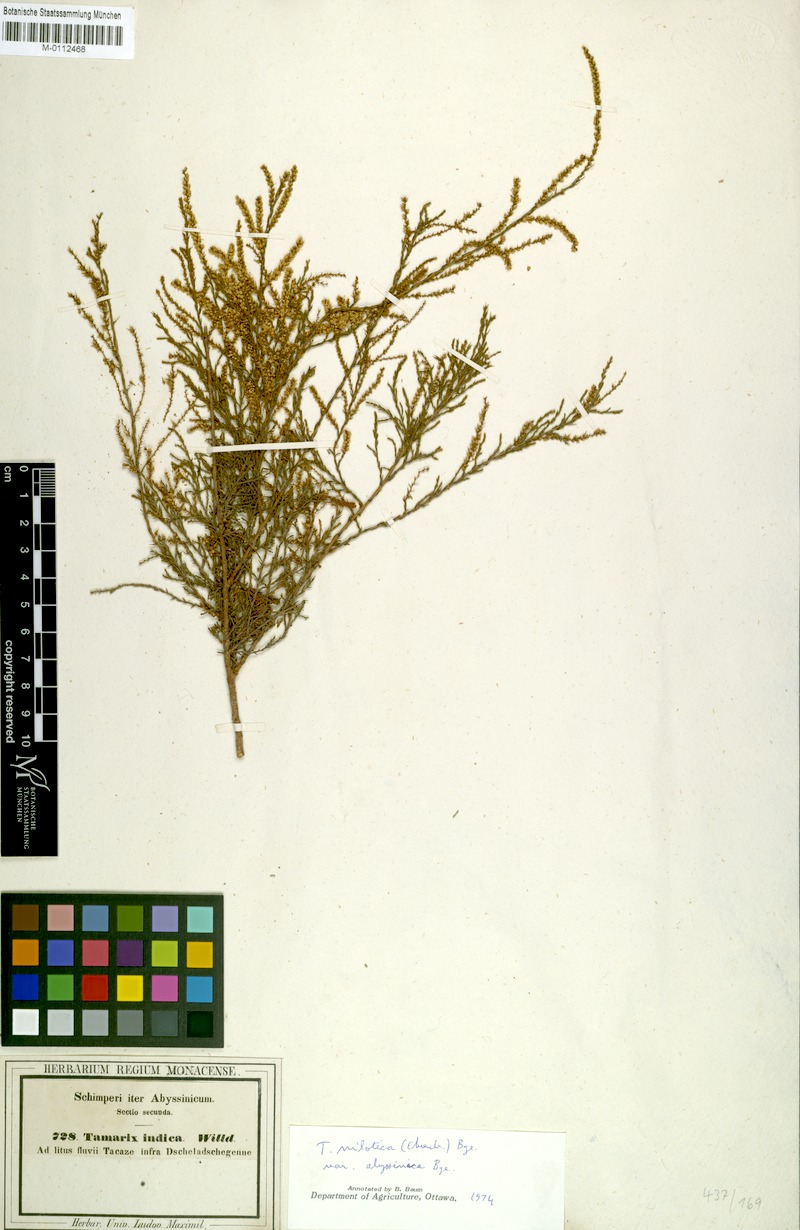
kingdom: Plantae
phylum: Tracheophyta
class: Magnoliopsida
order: Caryophyllales
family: Tamaricaceae
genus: Tamarix
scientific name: Tamarix nilotica
